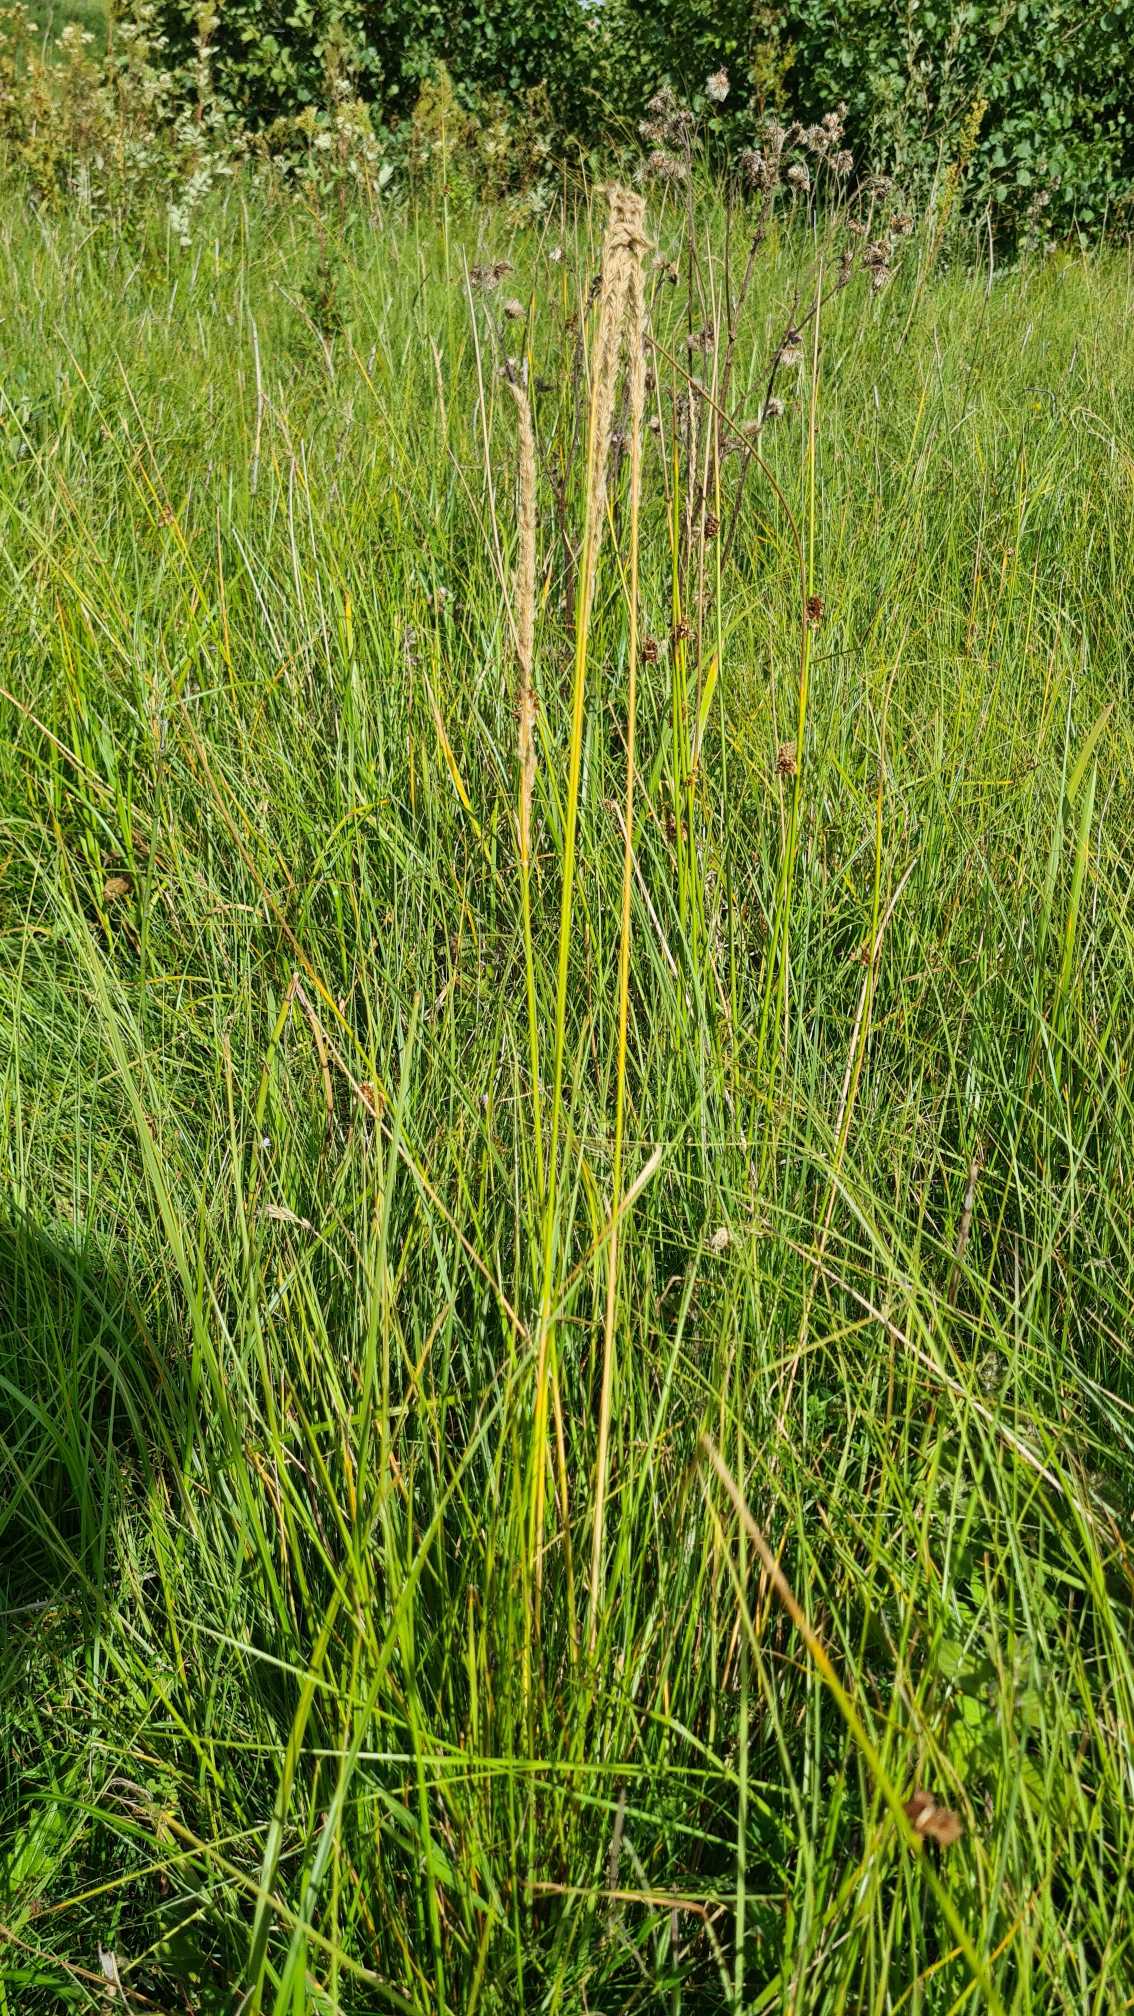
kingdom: Plantae
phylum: Tracheophyta
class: Liliopsida
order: Poales
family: Poaceae
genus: Achnatherum
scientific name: Achnatherum calamagrostis
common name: Stivtoppet rørhvene
